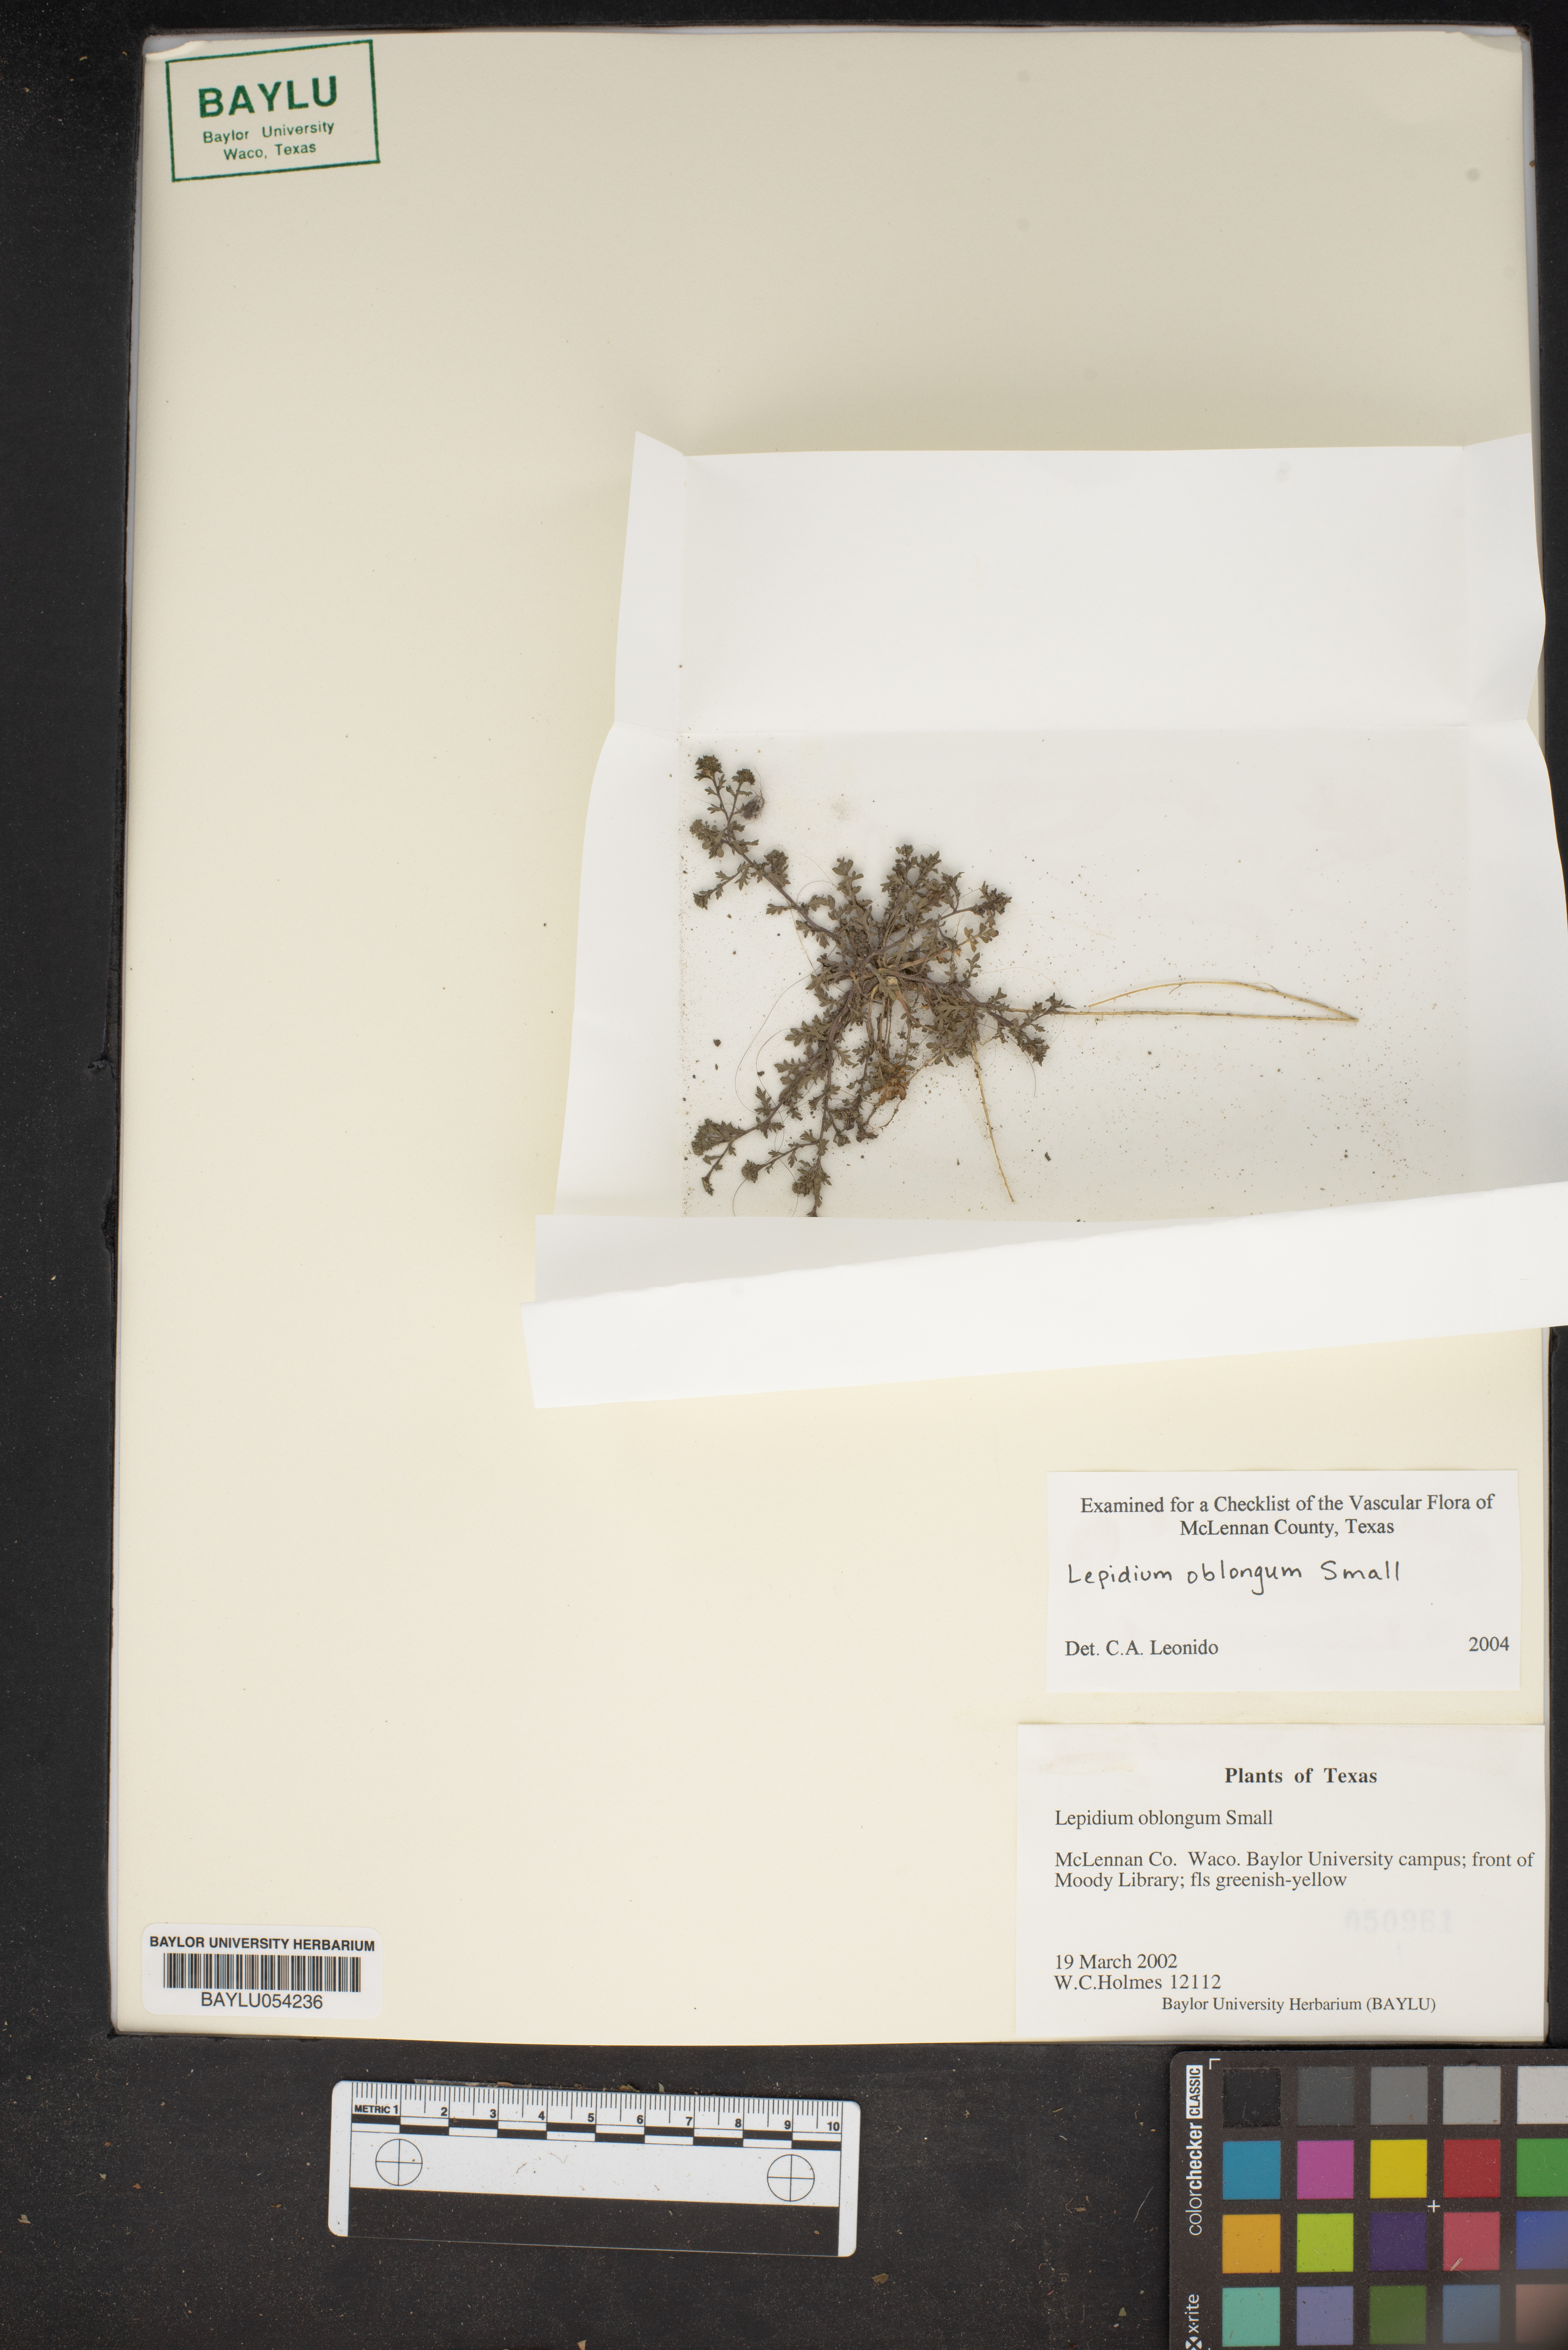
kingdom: Plantae
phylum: Tracheophyta
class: Magnoliopsida
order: Brassicales
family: Brassicaceae
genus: Lepidium
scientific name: Lepidium oblongum
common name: Veiny pepperweed
